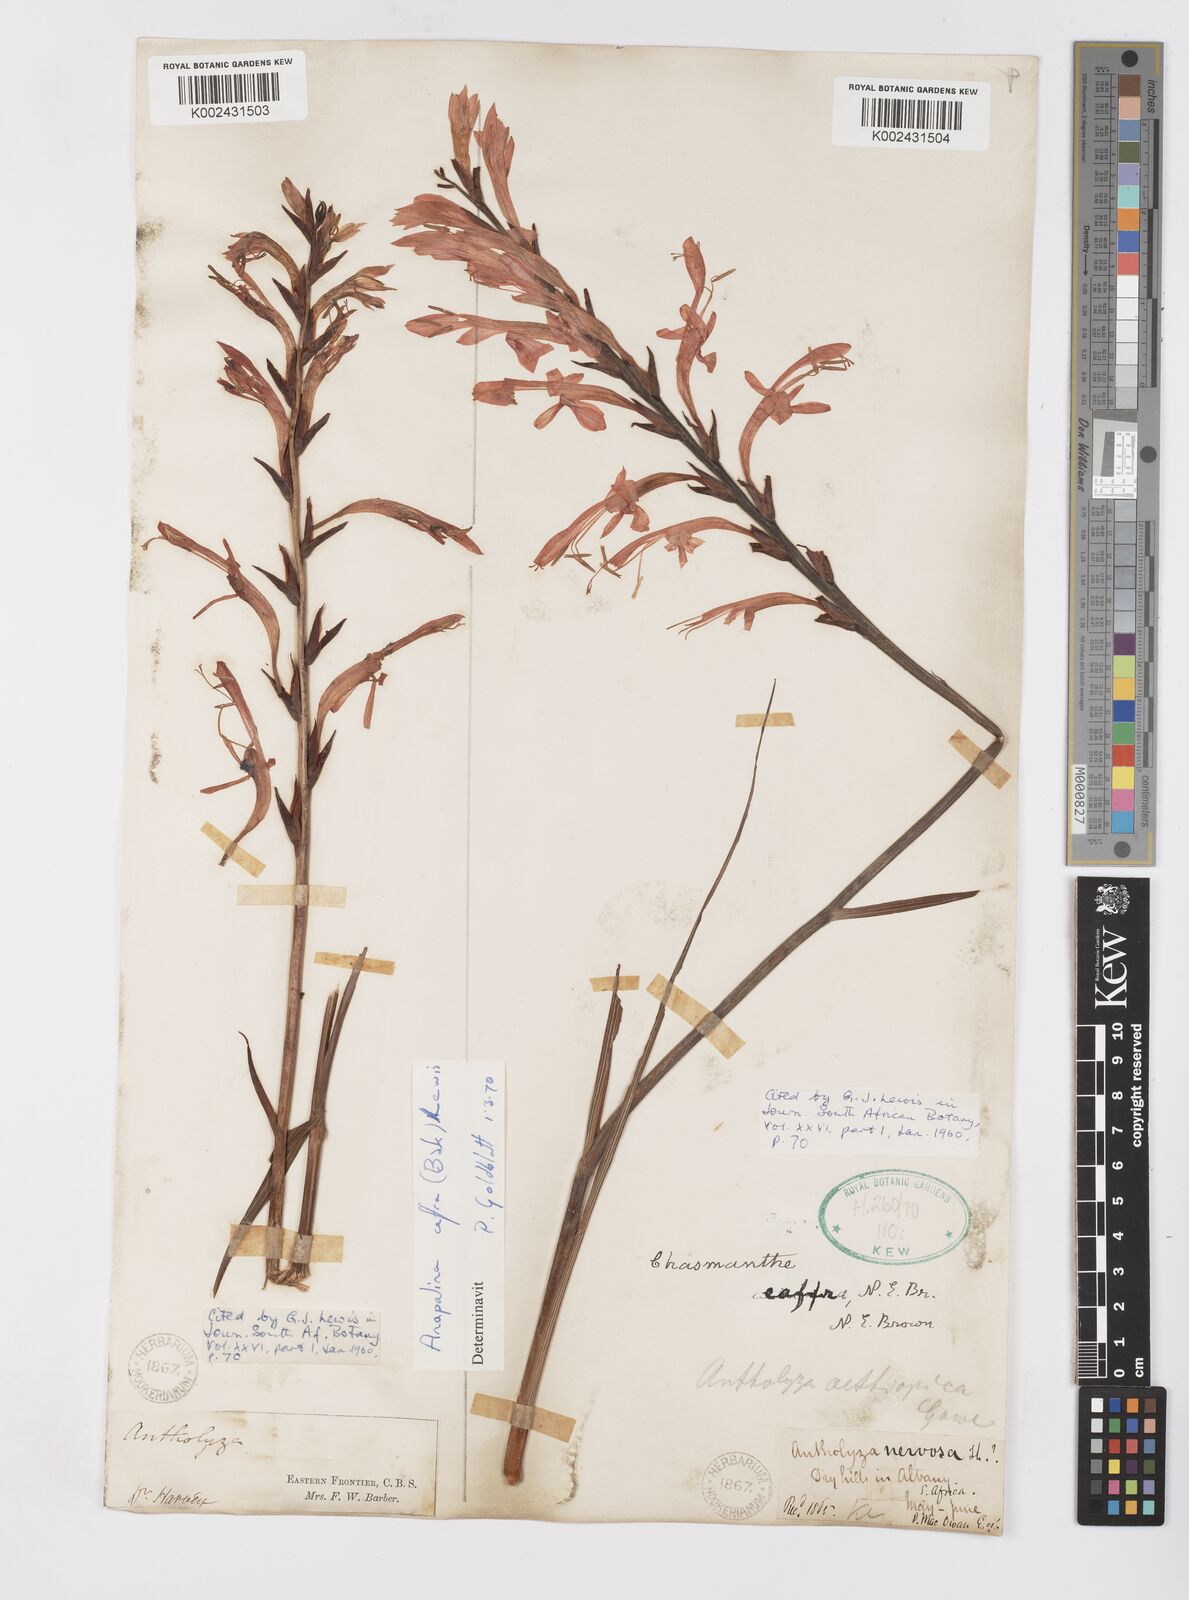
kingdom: Plantae
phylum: Tracheophyta
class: Liliopsida
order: Asparagales
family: Iridaceae
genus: Tritoniopsis
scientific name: Tritoniopsis caffra
